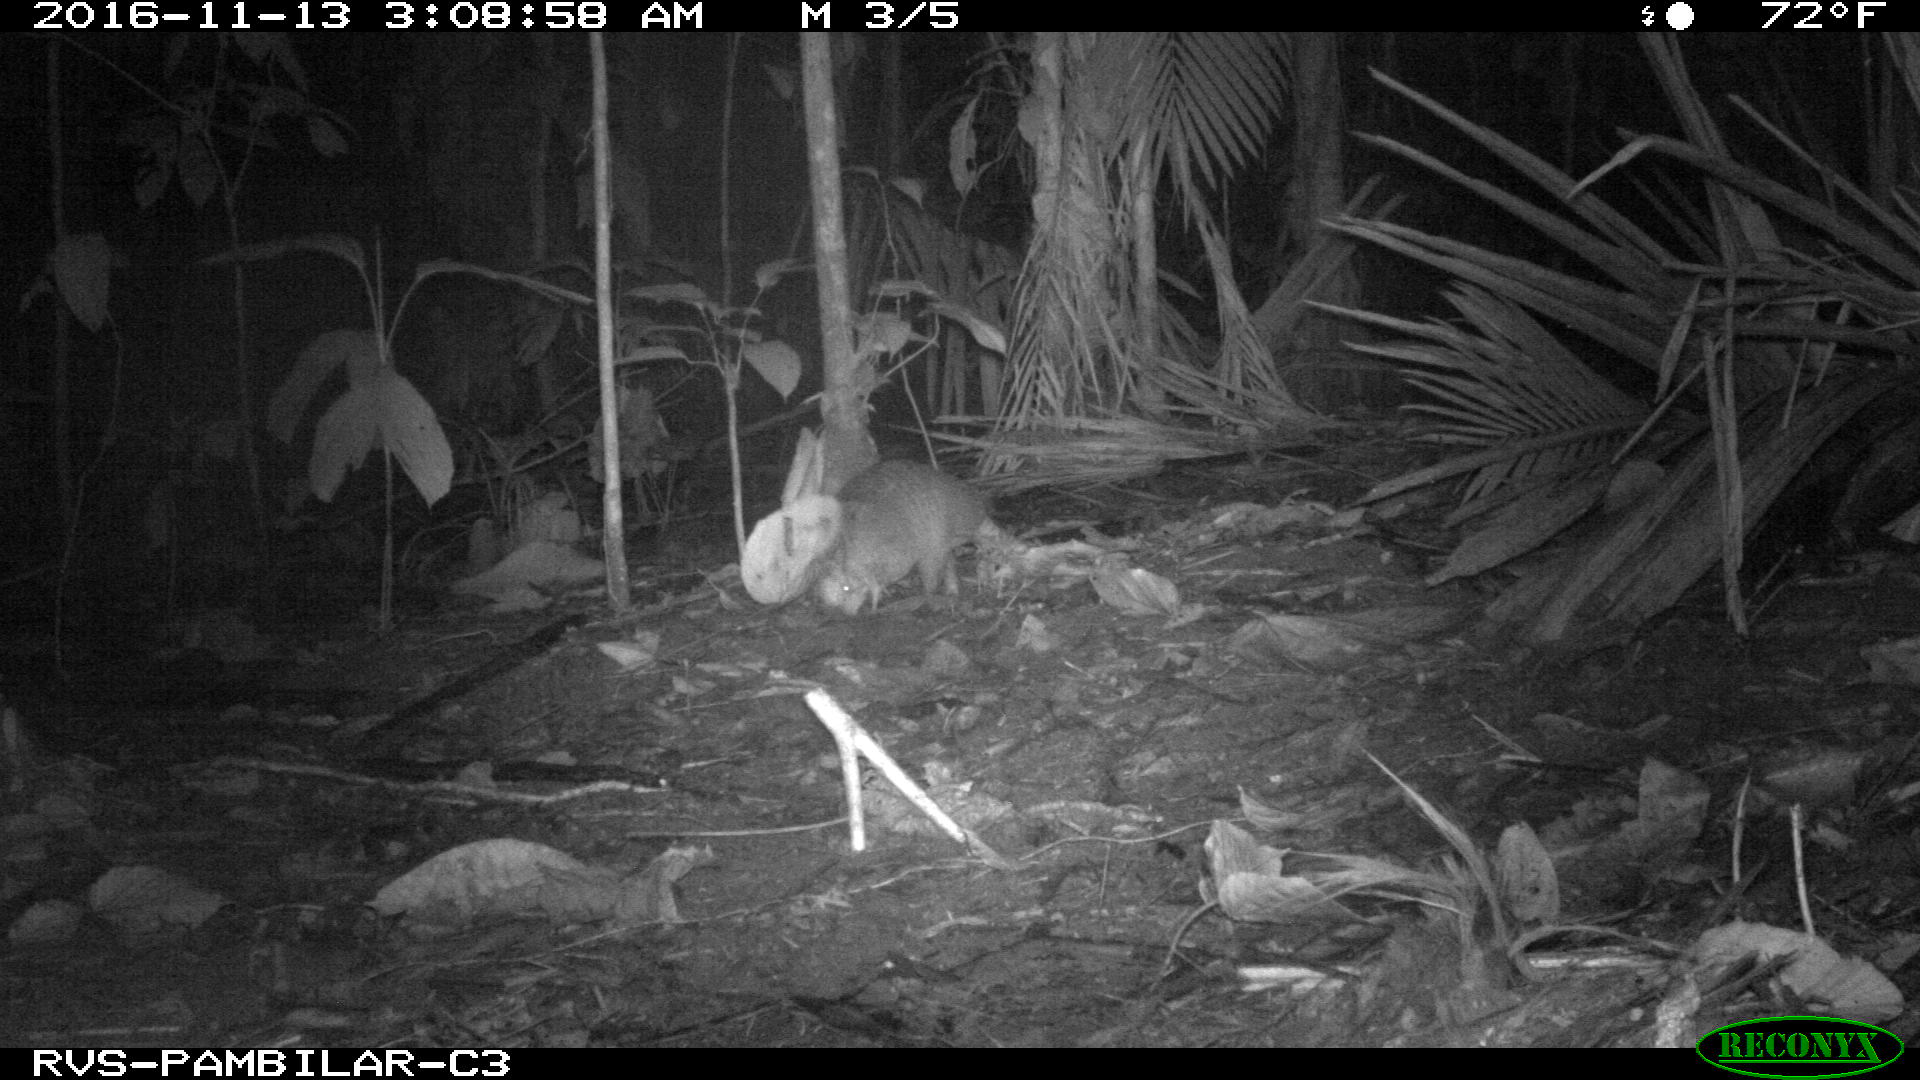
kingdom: Animalia
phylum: Chordata
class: Mammalia
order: Cingulata
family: Dasypodidae
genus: Dasypus
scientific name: Dasypus novemcinctus
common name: Nine-banded armadillo
